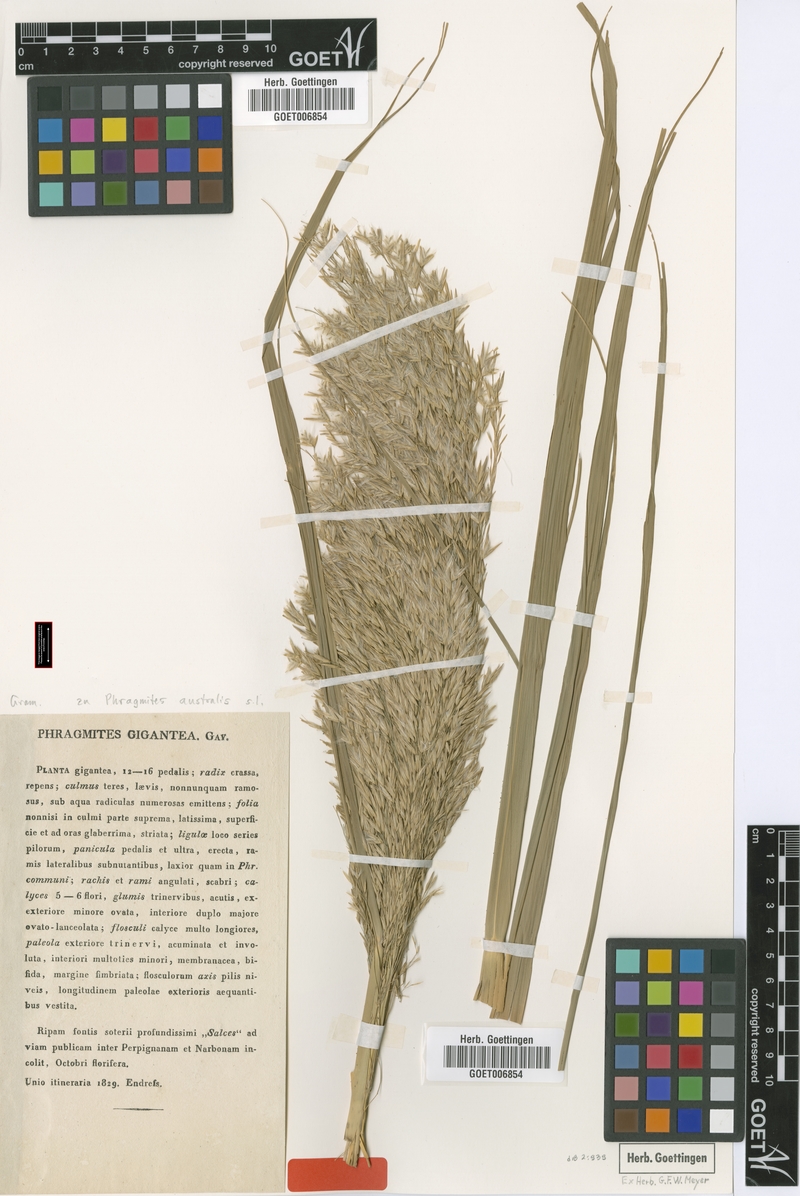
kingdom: Plantae
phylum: Tracheophyta
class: Liliopsida
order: Poales
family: Poaceae
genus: Phragmites
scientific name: Phragmites australis
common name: Common reed
